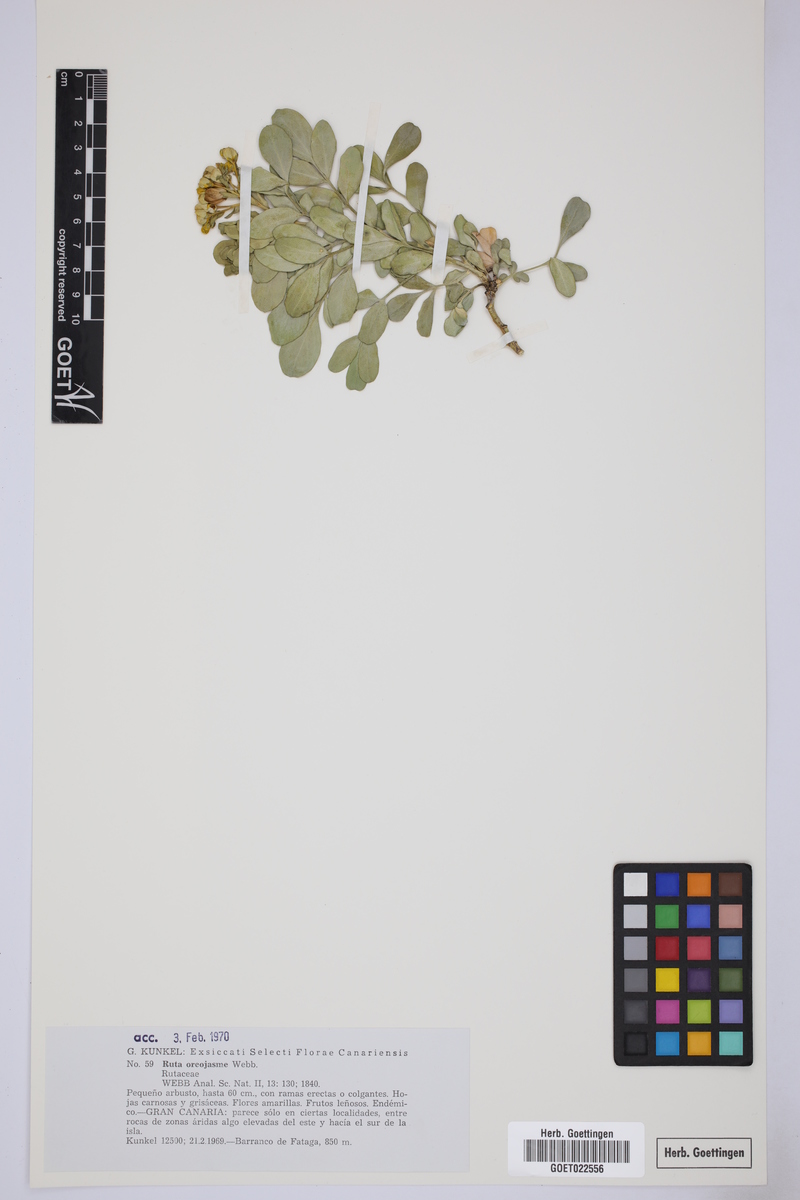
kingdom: Plantae
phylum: Tracheophyta
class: Magnoliopsida
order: Sapindales
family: Rutaceae
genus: Ruta
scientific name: Ruta oreojasme
